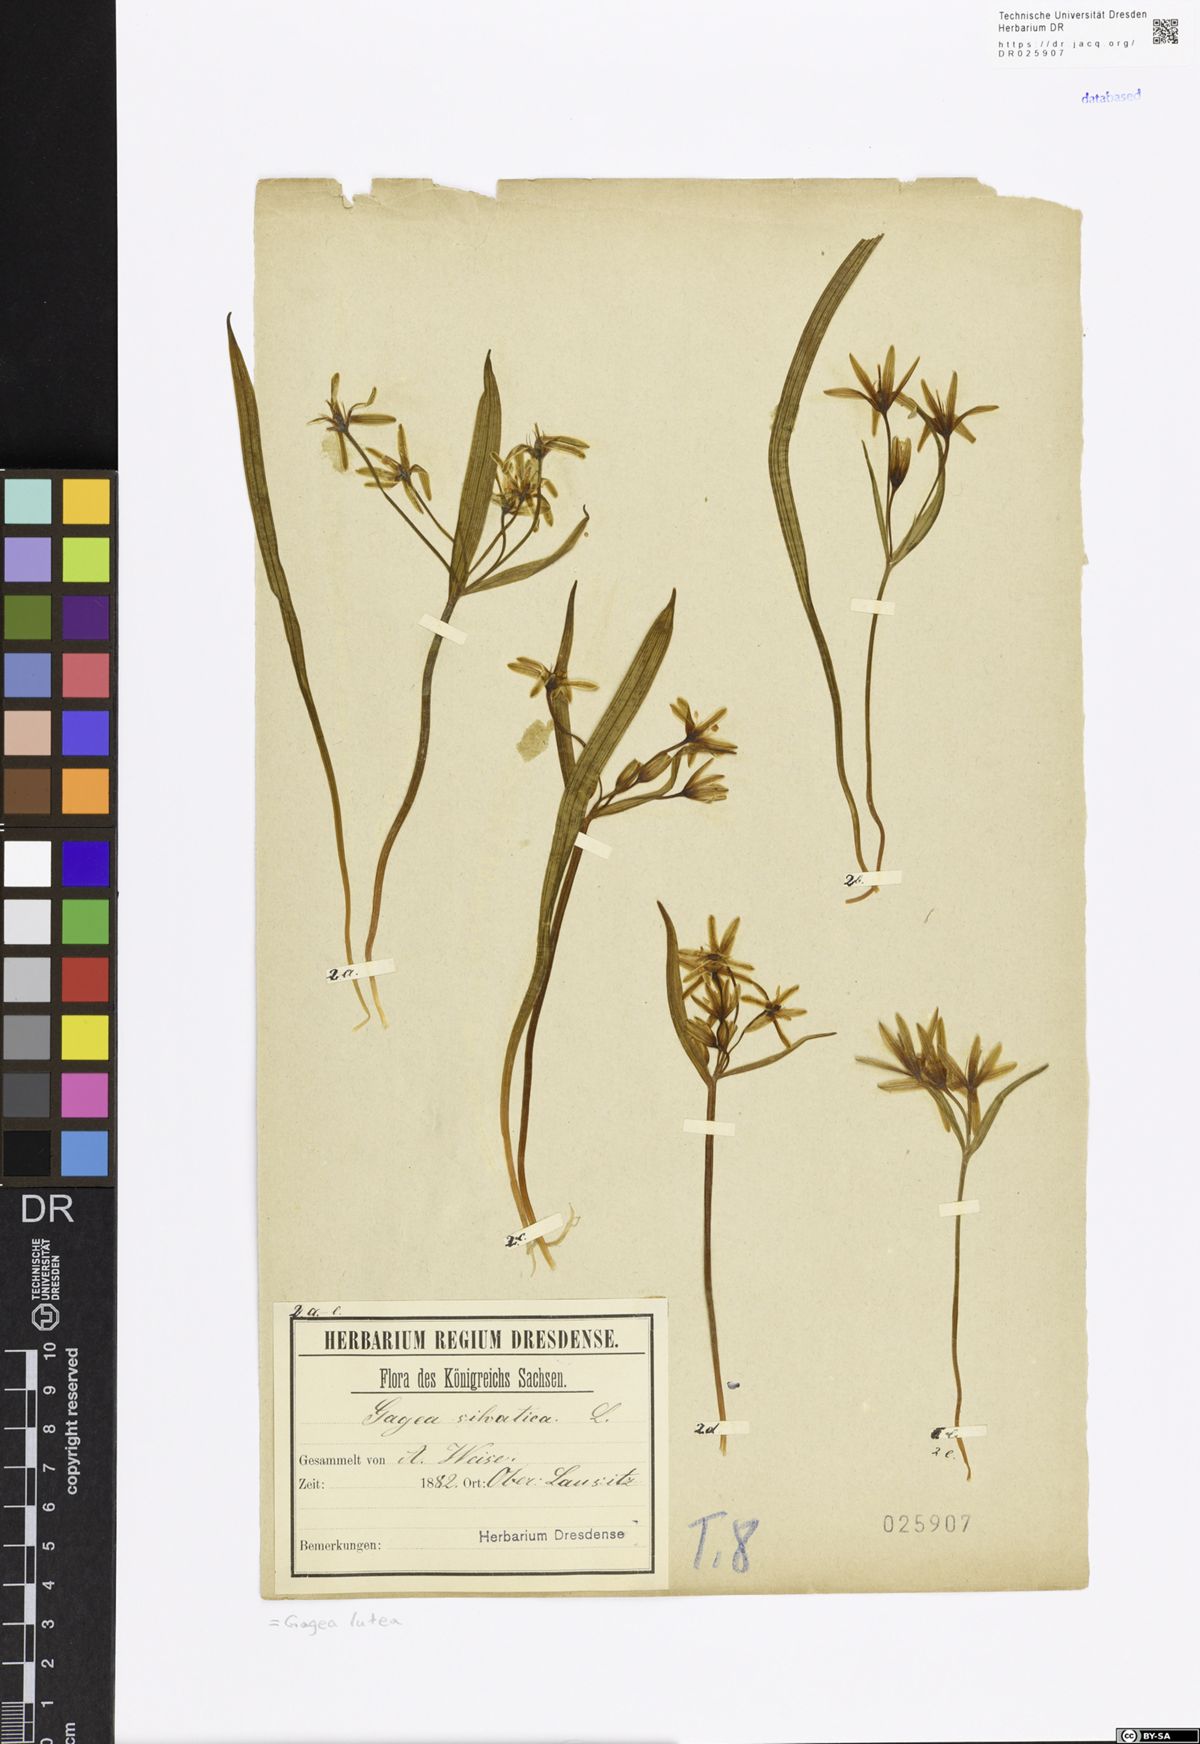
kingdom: Plantae
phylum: Tracheophyta
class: Liliopsida
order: Liliales
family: Liliaceae
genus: Gagea
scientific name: Gagea lutea
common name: Yellow star-of-bethlehem
